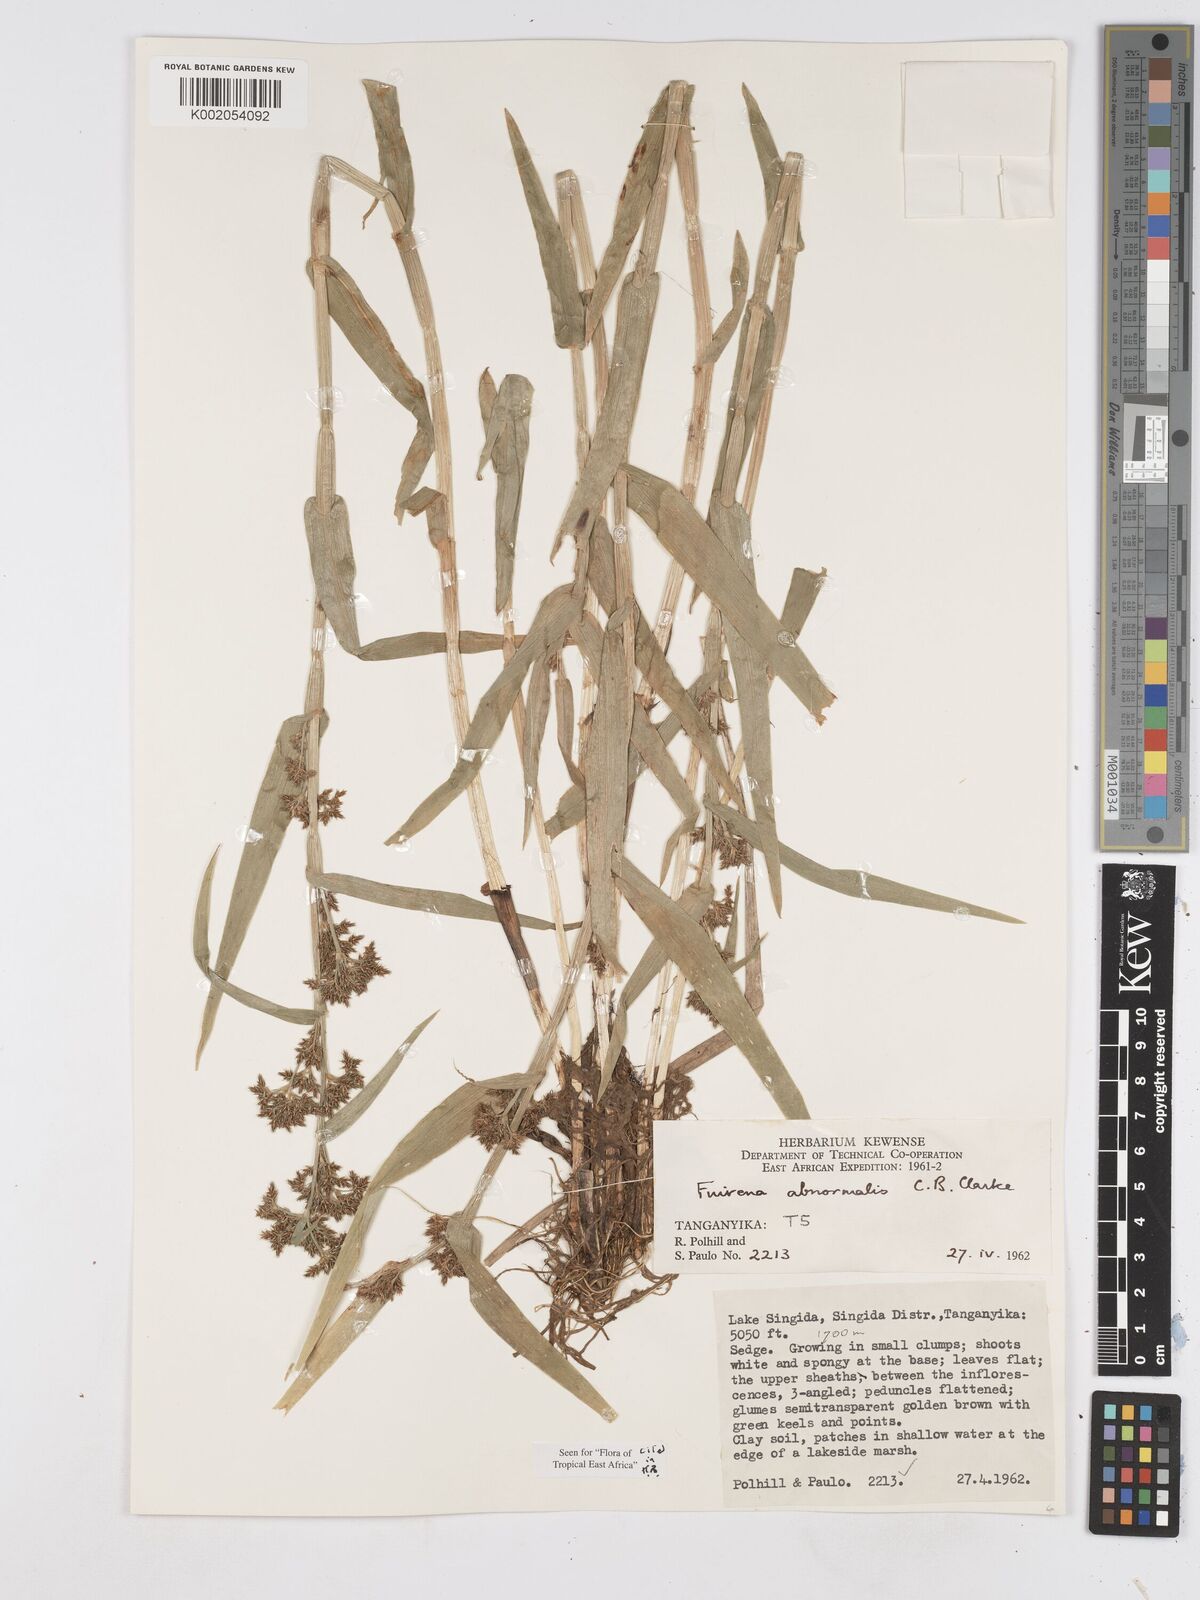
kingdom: Plantae
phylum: Tracheophyta
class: Liliopsida
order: Poales
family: Cyperaceae
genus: Fuirena
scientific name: Fuirena abnormalis
